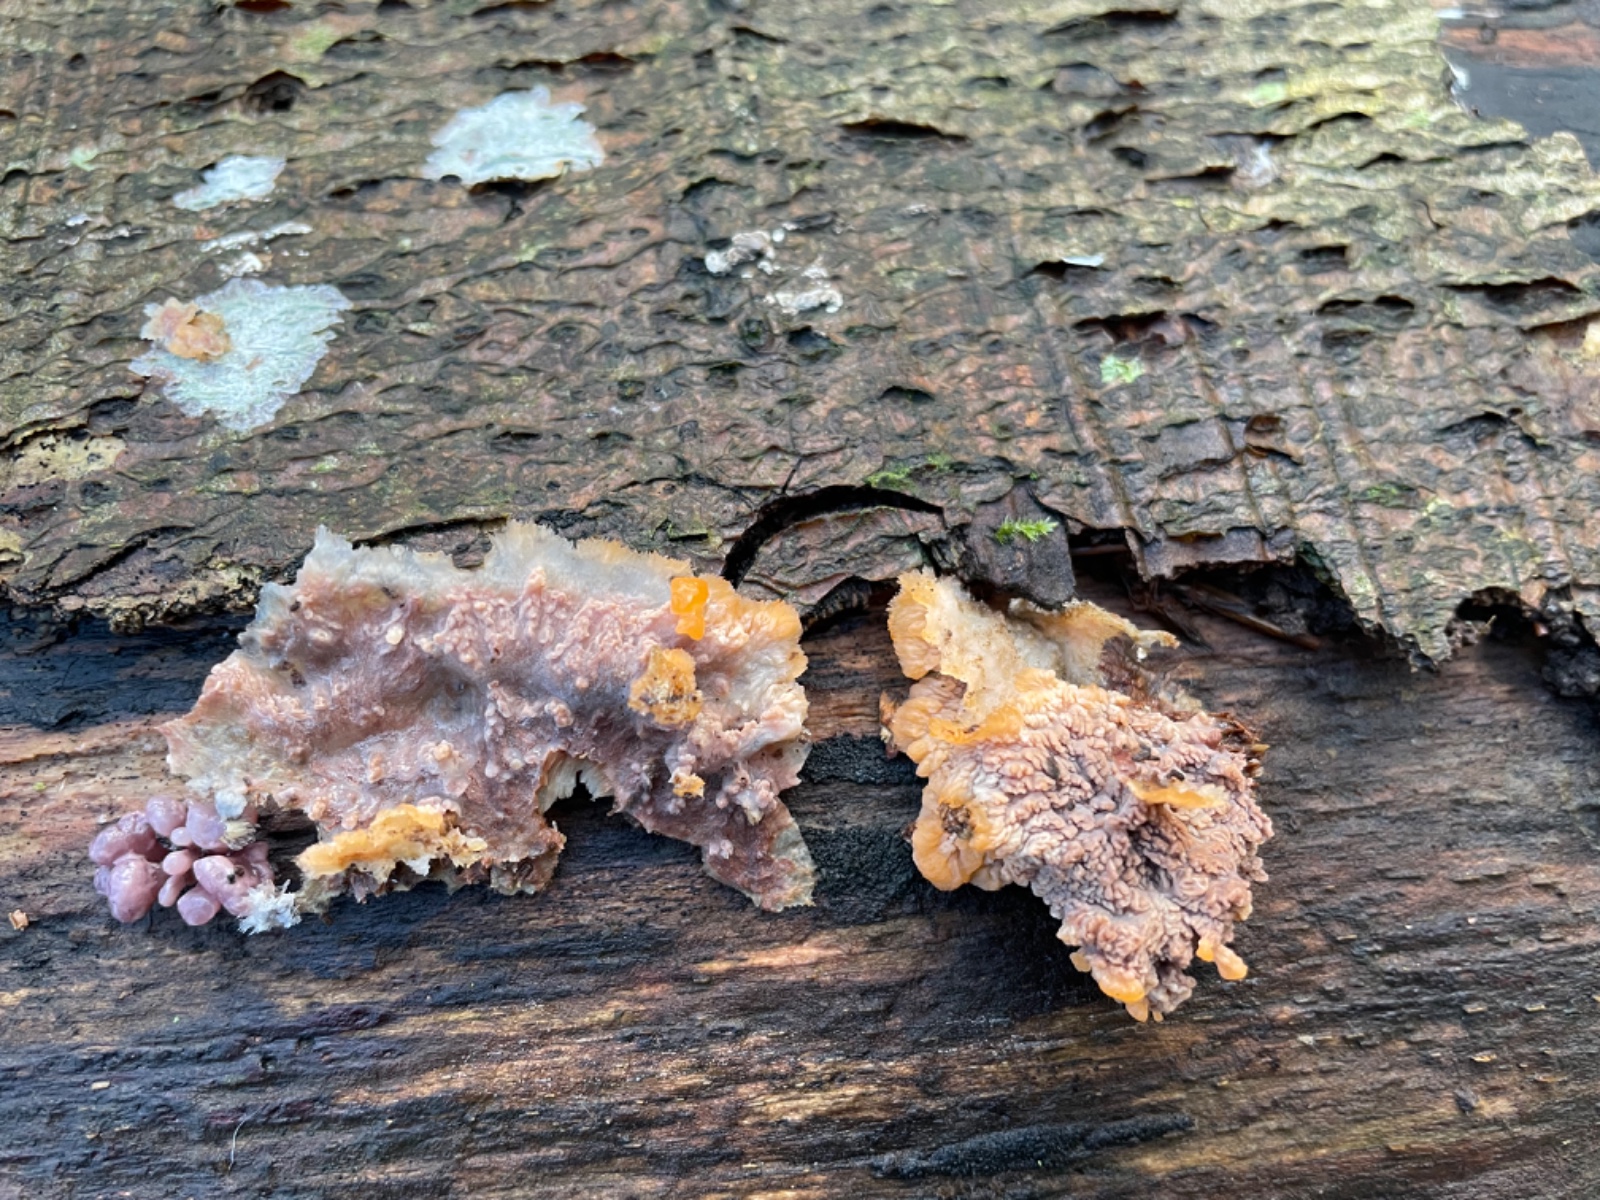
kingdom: Fungi
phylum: Basidiomycota
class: Agaricomycetes
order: Polyporales
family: Meruliaceae
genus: Phlebia
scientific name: Phlebia radiata
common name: stråle-åresvamp
